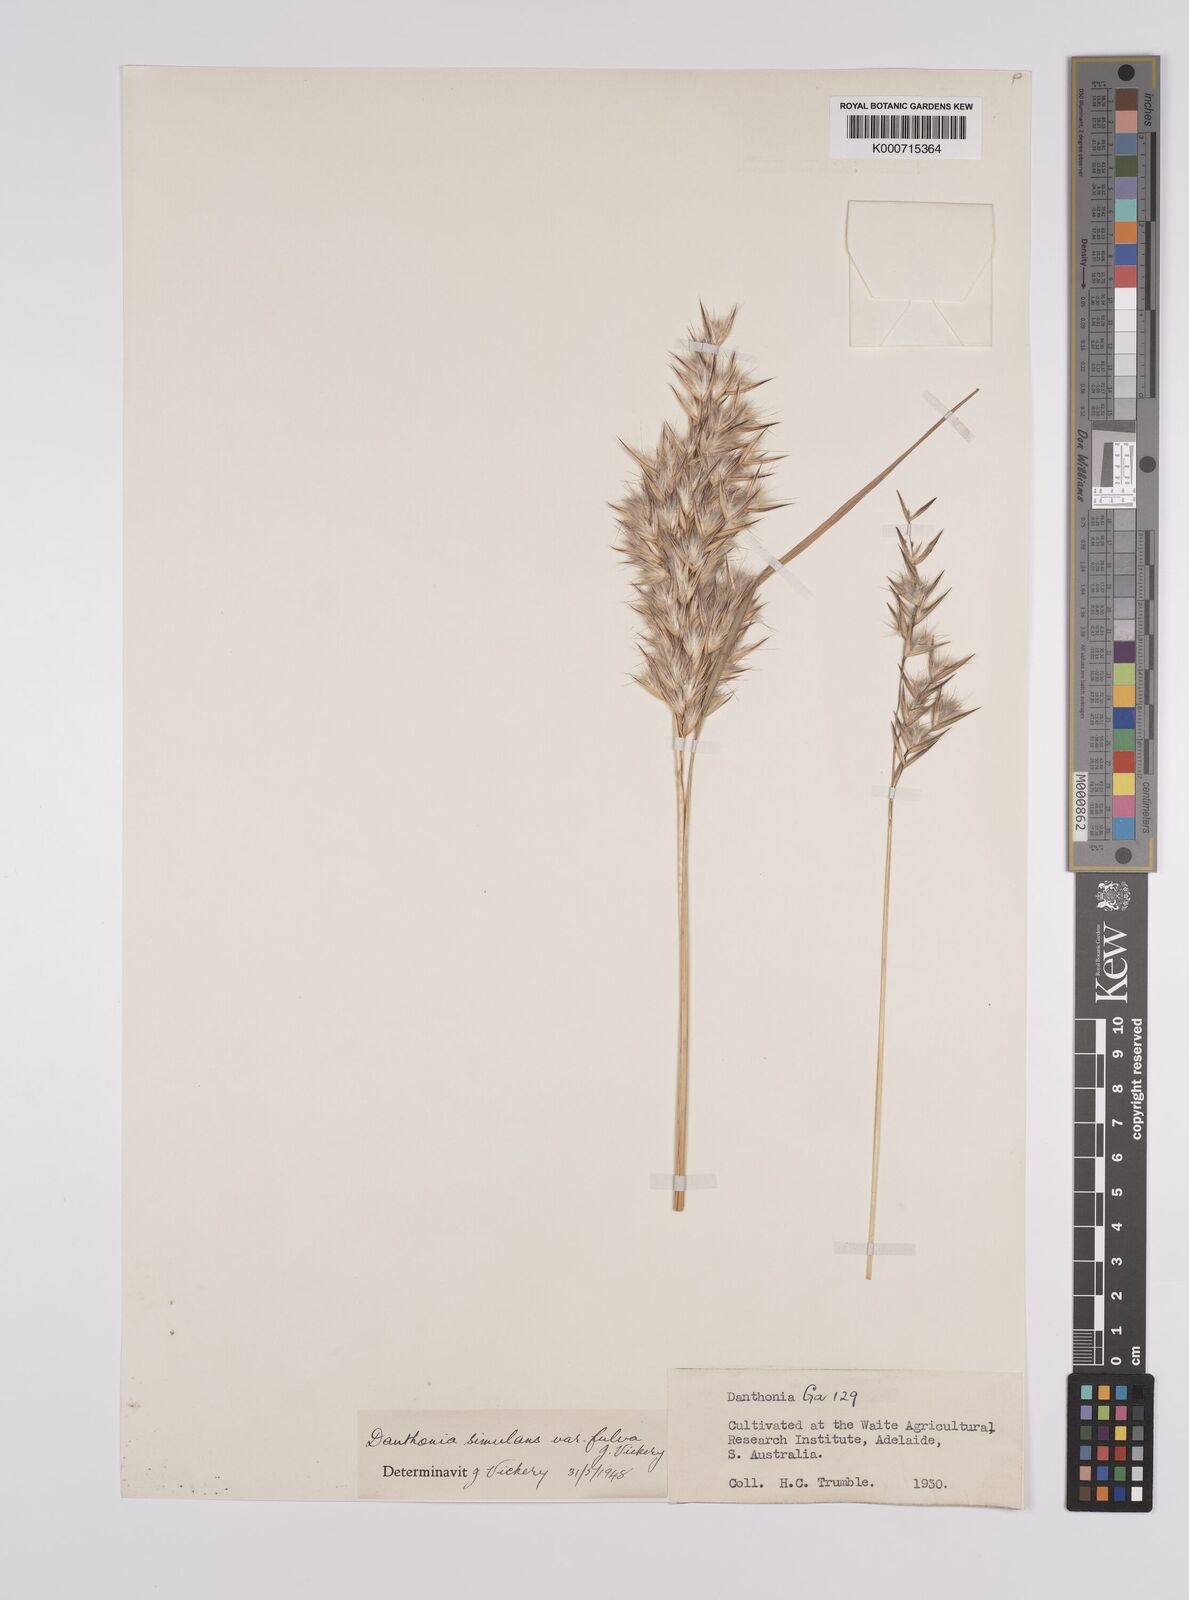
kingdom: Plantae
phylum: Tracheophyta
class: Liliopsida
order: Poales
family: Poaceae
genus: Rytidosperma
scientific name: Rytidosperma bipartitum
